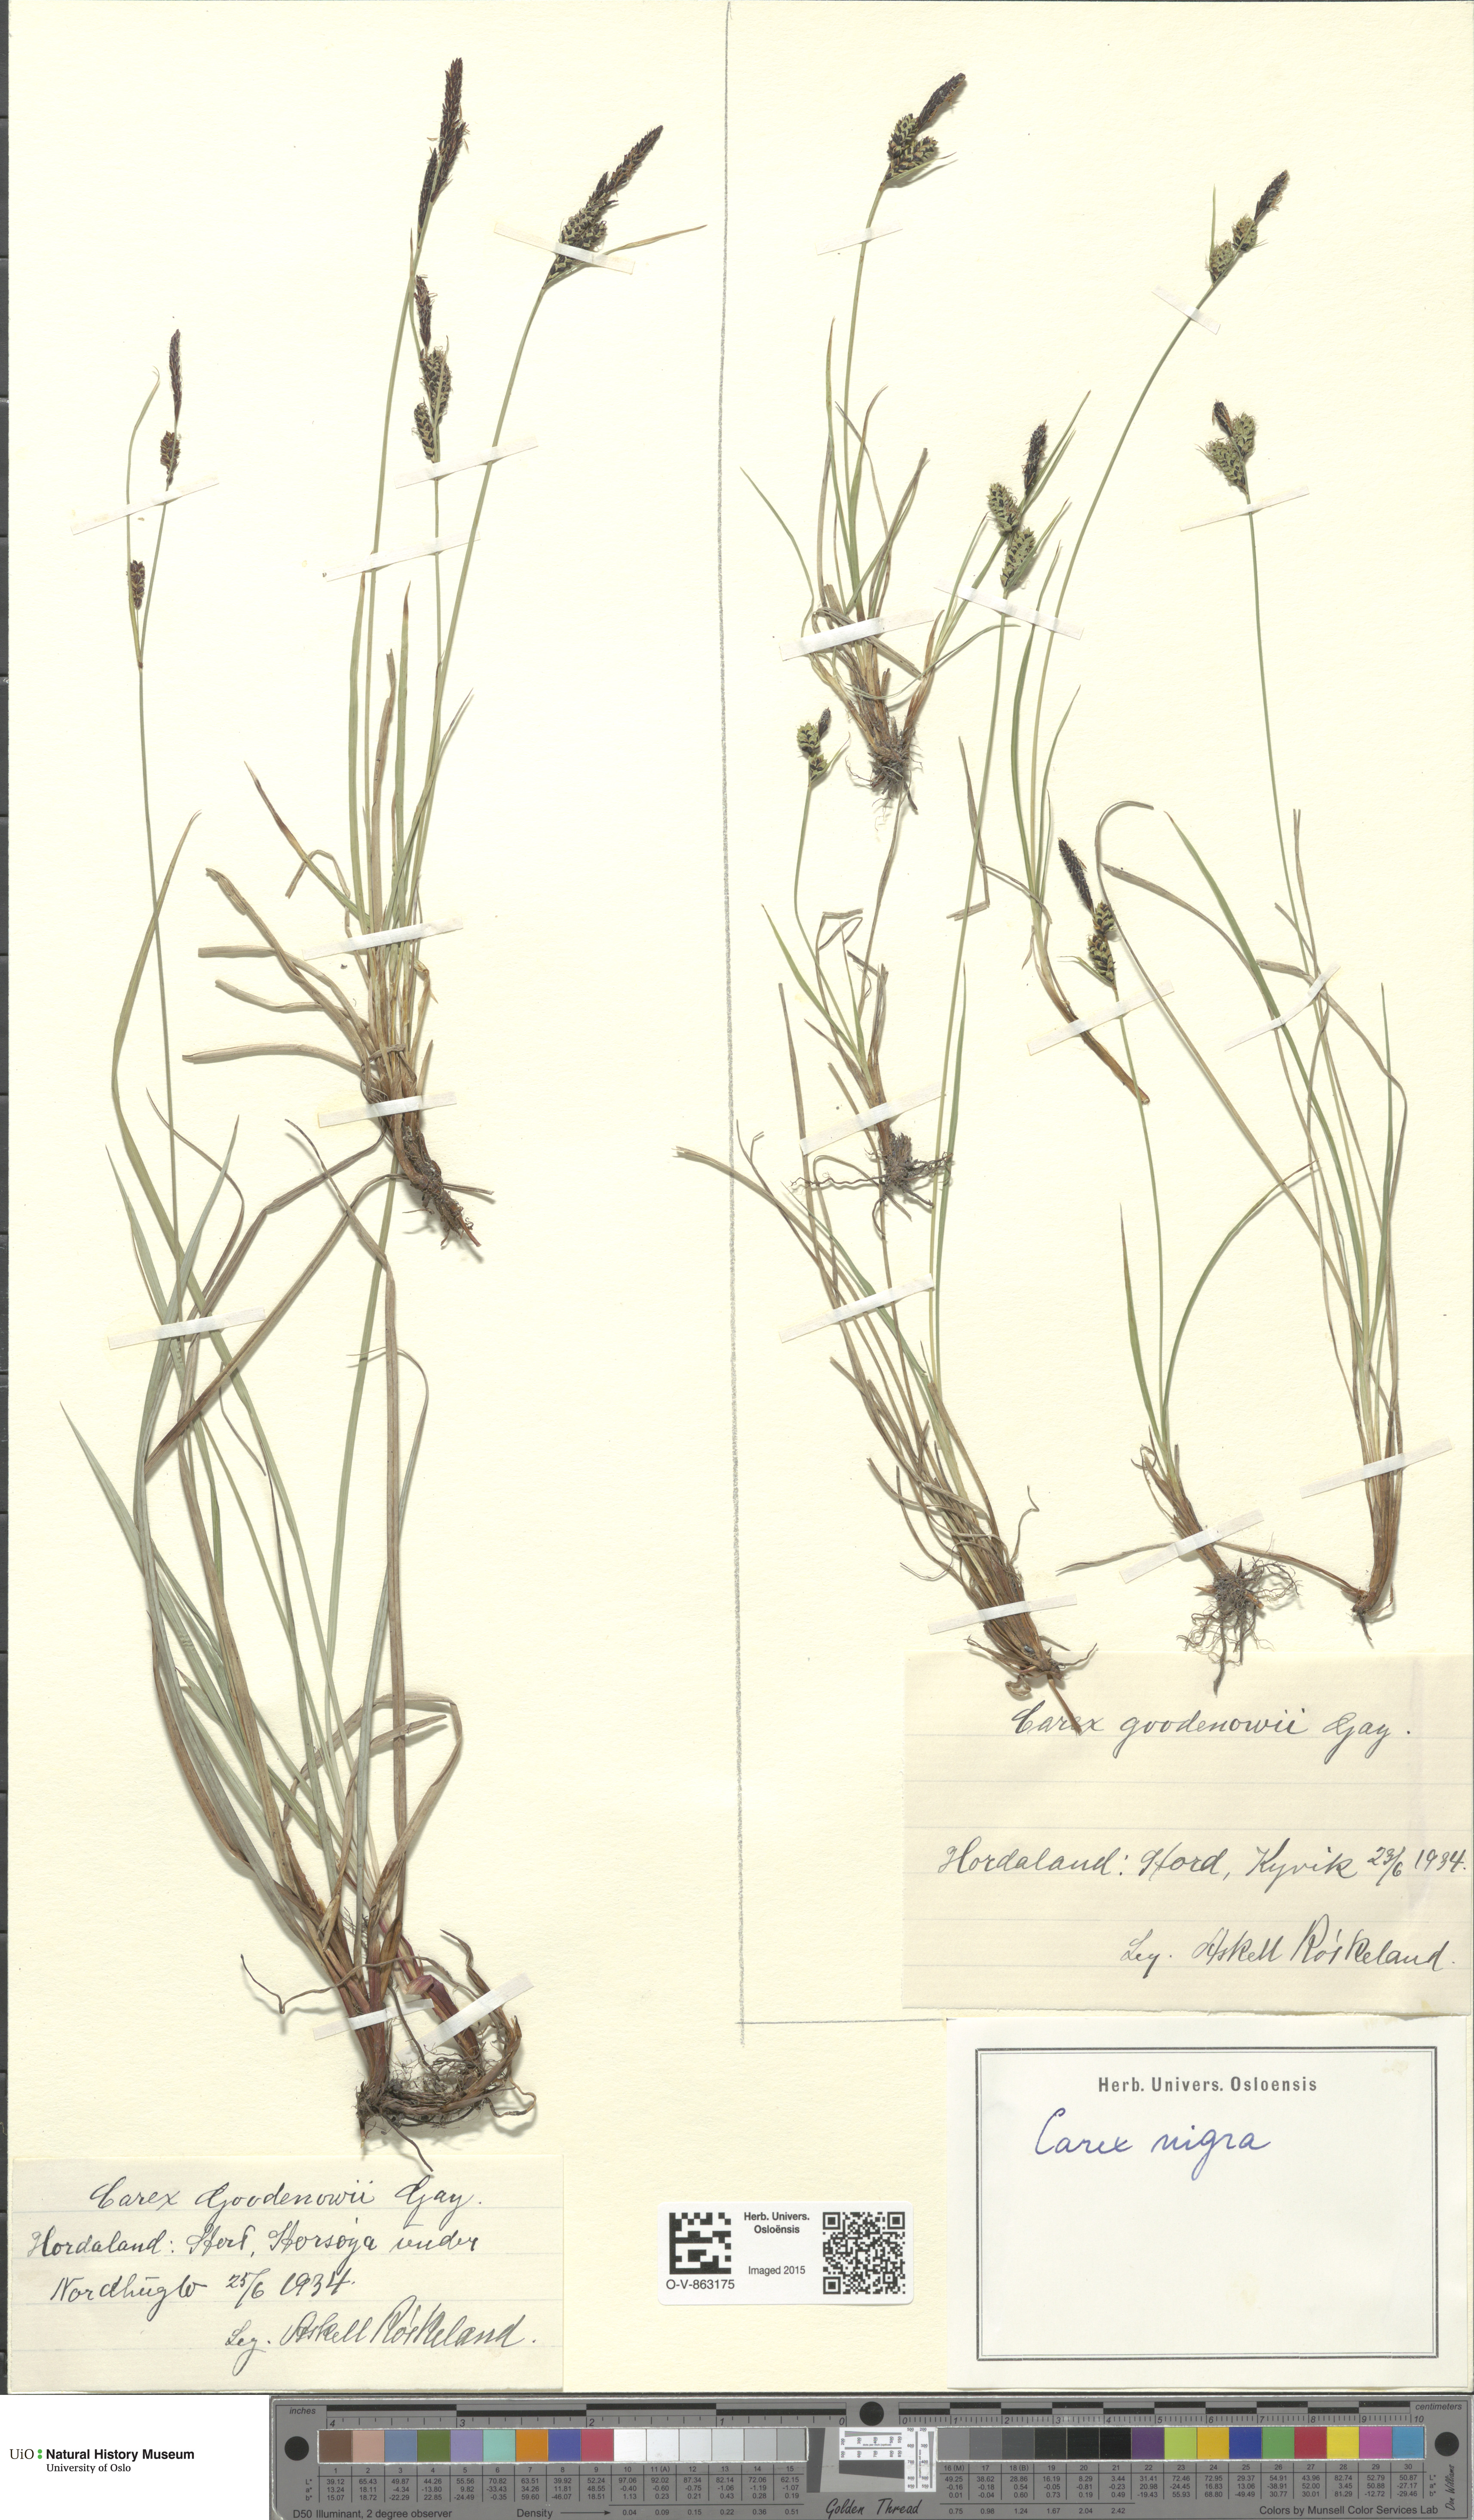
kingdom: Plantae
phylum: Tracheophyta
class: Liliopsida
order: Poales
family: Cyperaceae
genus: Carex
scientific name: Carex nigra
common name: Common sedge
